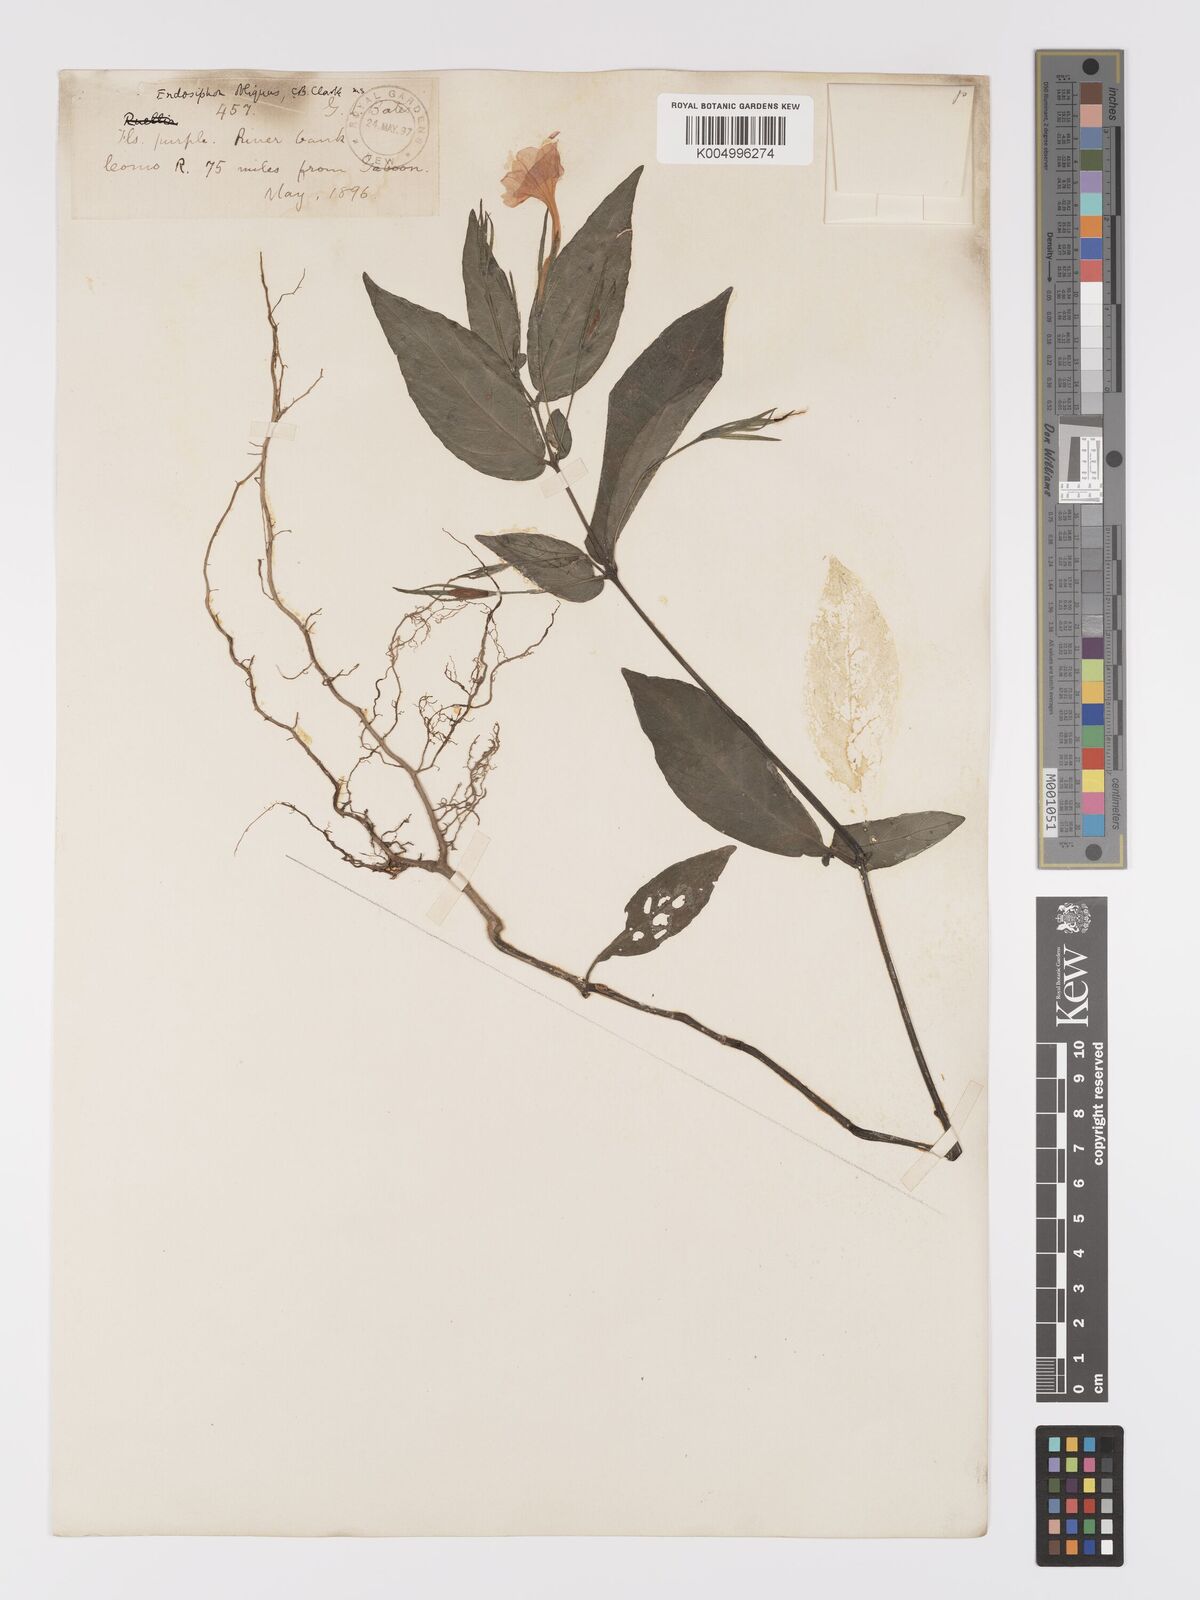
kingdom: Plantae
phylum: Tracheophyta
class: Magnoliopsida
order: Lamiales
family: Acanthaceae
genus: Ruellia
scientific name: Ruellia primuloides
